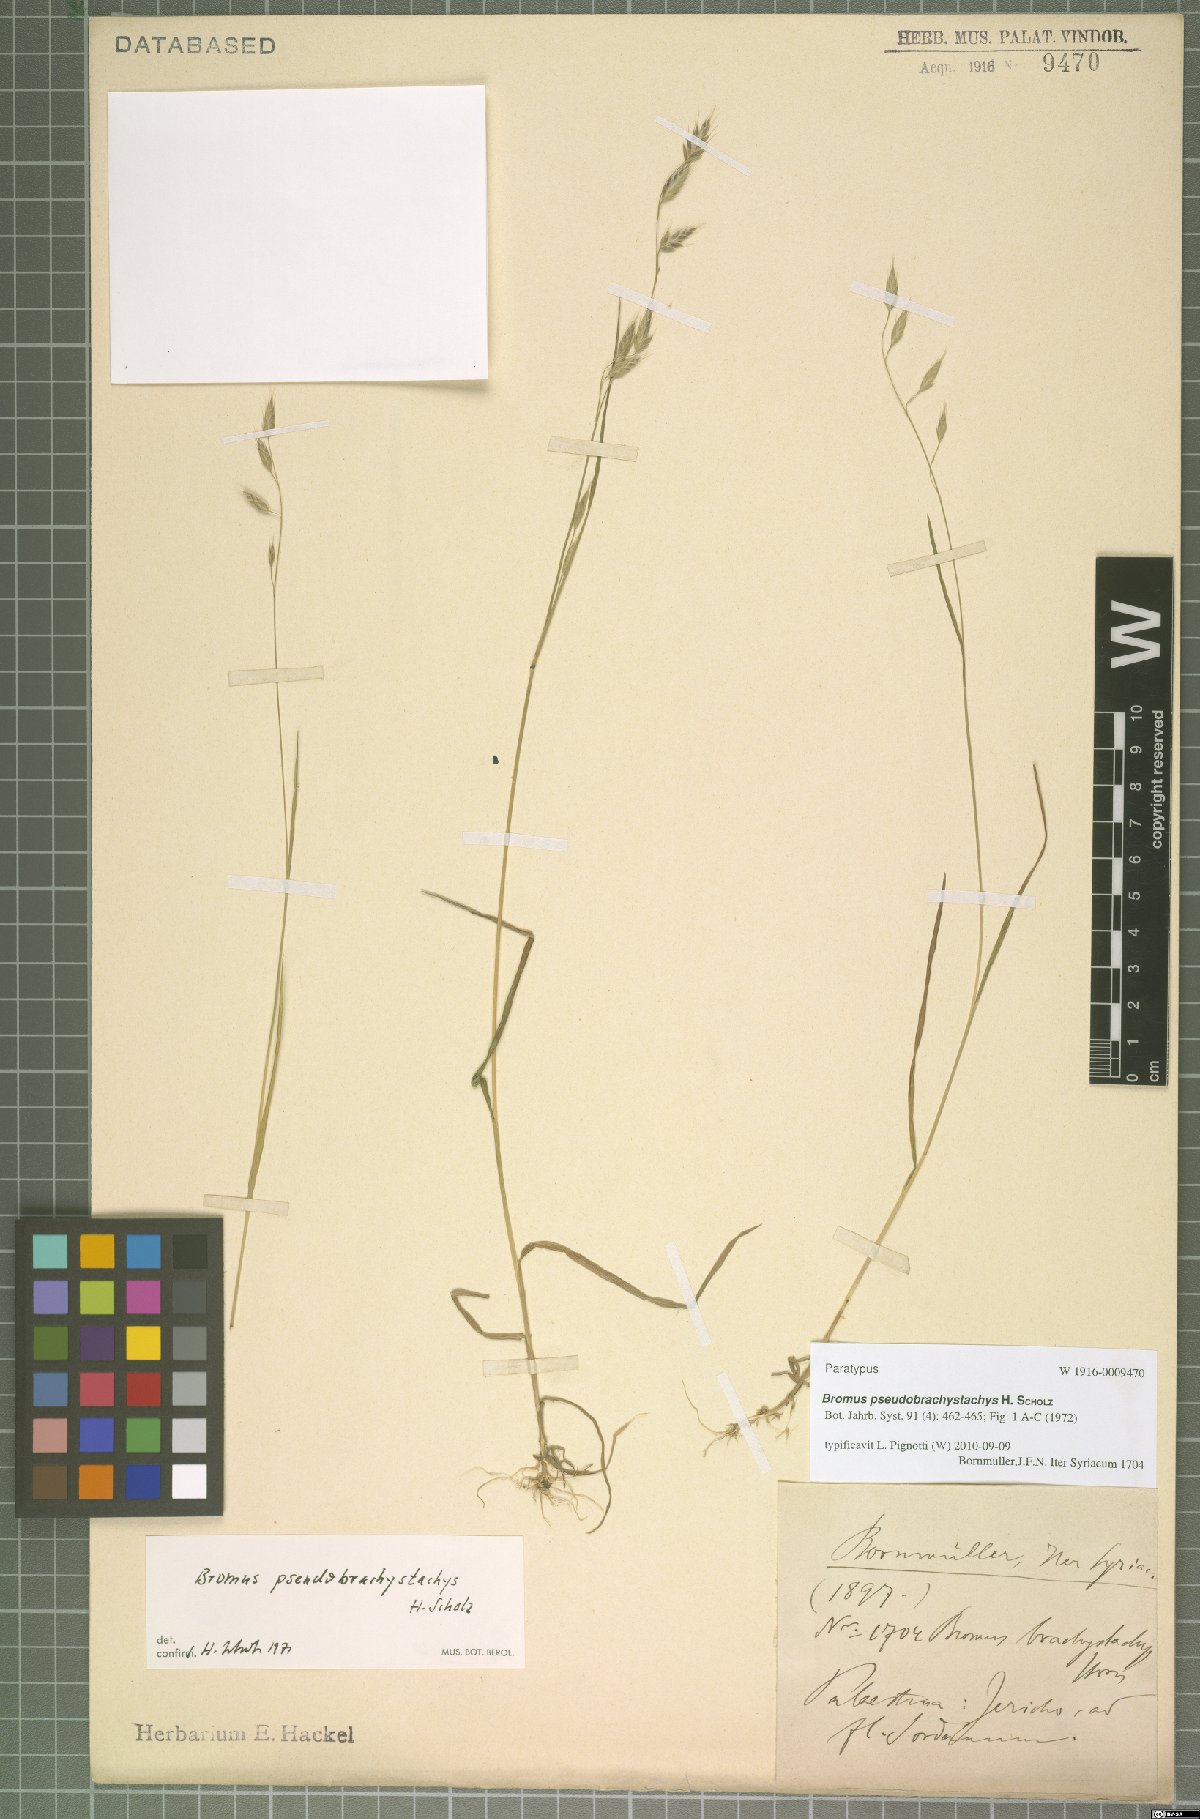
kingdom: Plantae
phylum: Tracheophyta
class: Liliopsida
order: Poales
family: Poaceae
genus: Bromus
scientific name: Bromus pseudobrachystachys
